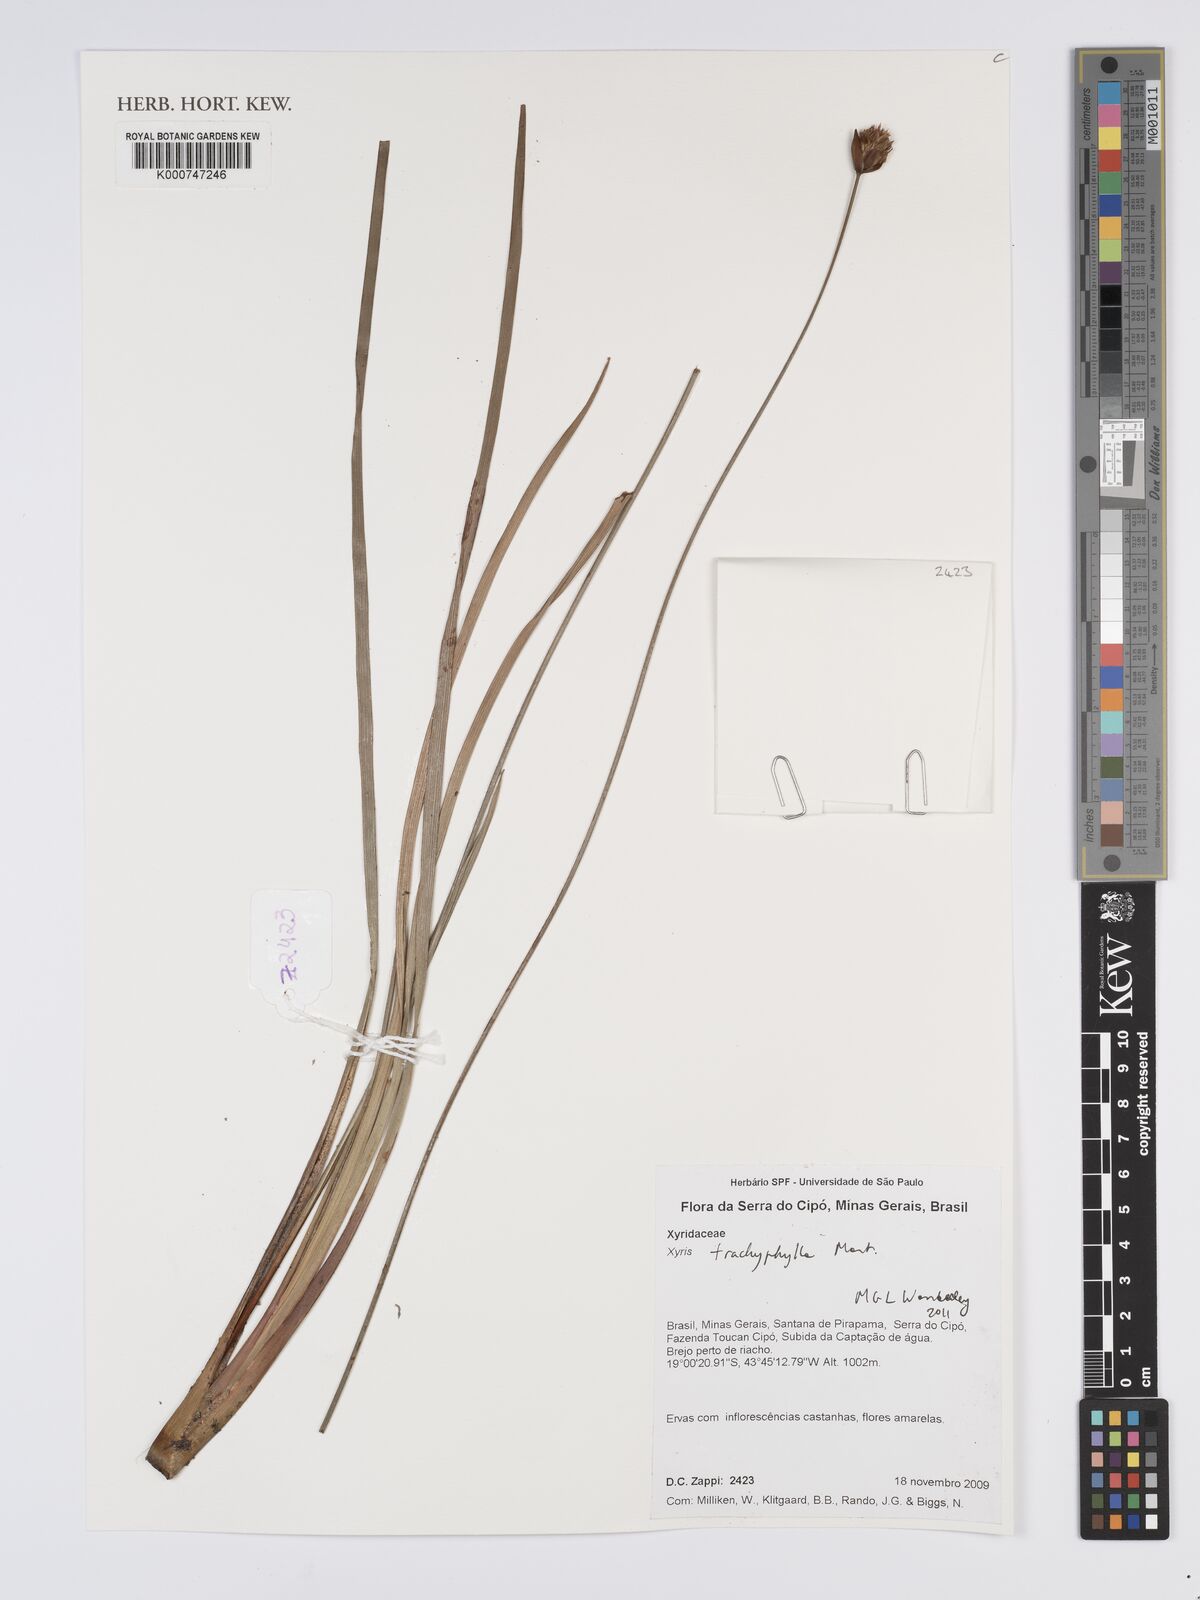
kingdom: Plantae
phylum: Tracheophyta
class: Liliopsida
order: Poales
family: Xyridaceae
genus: Xyris
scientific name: Xyris trachyphylla
